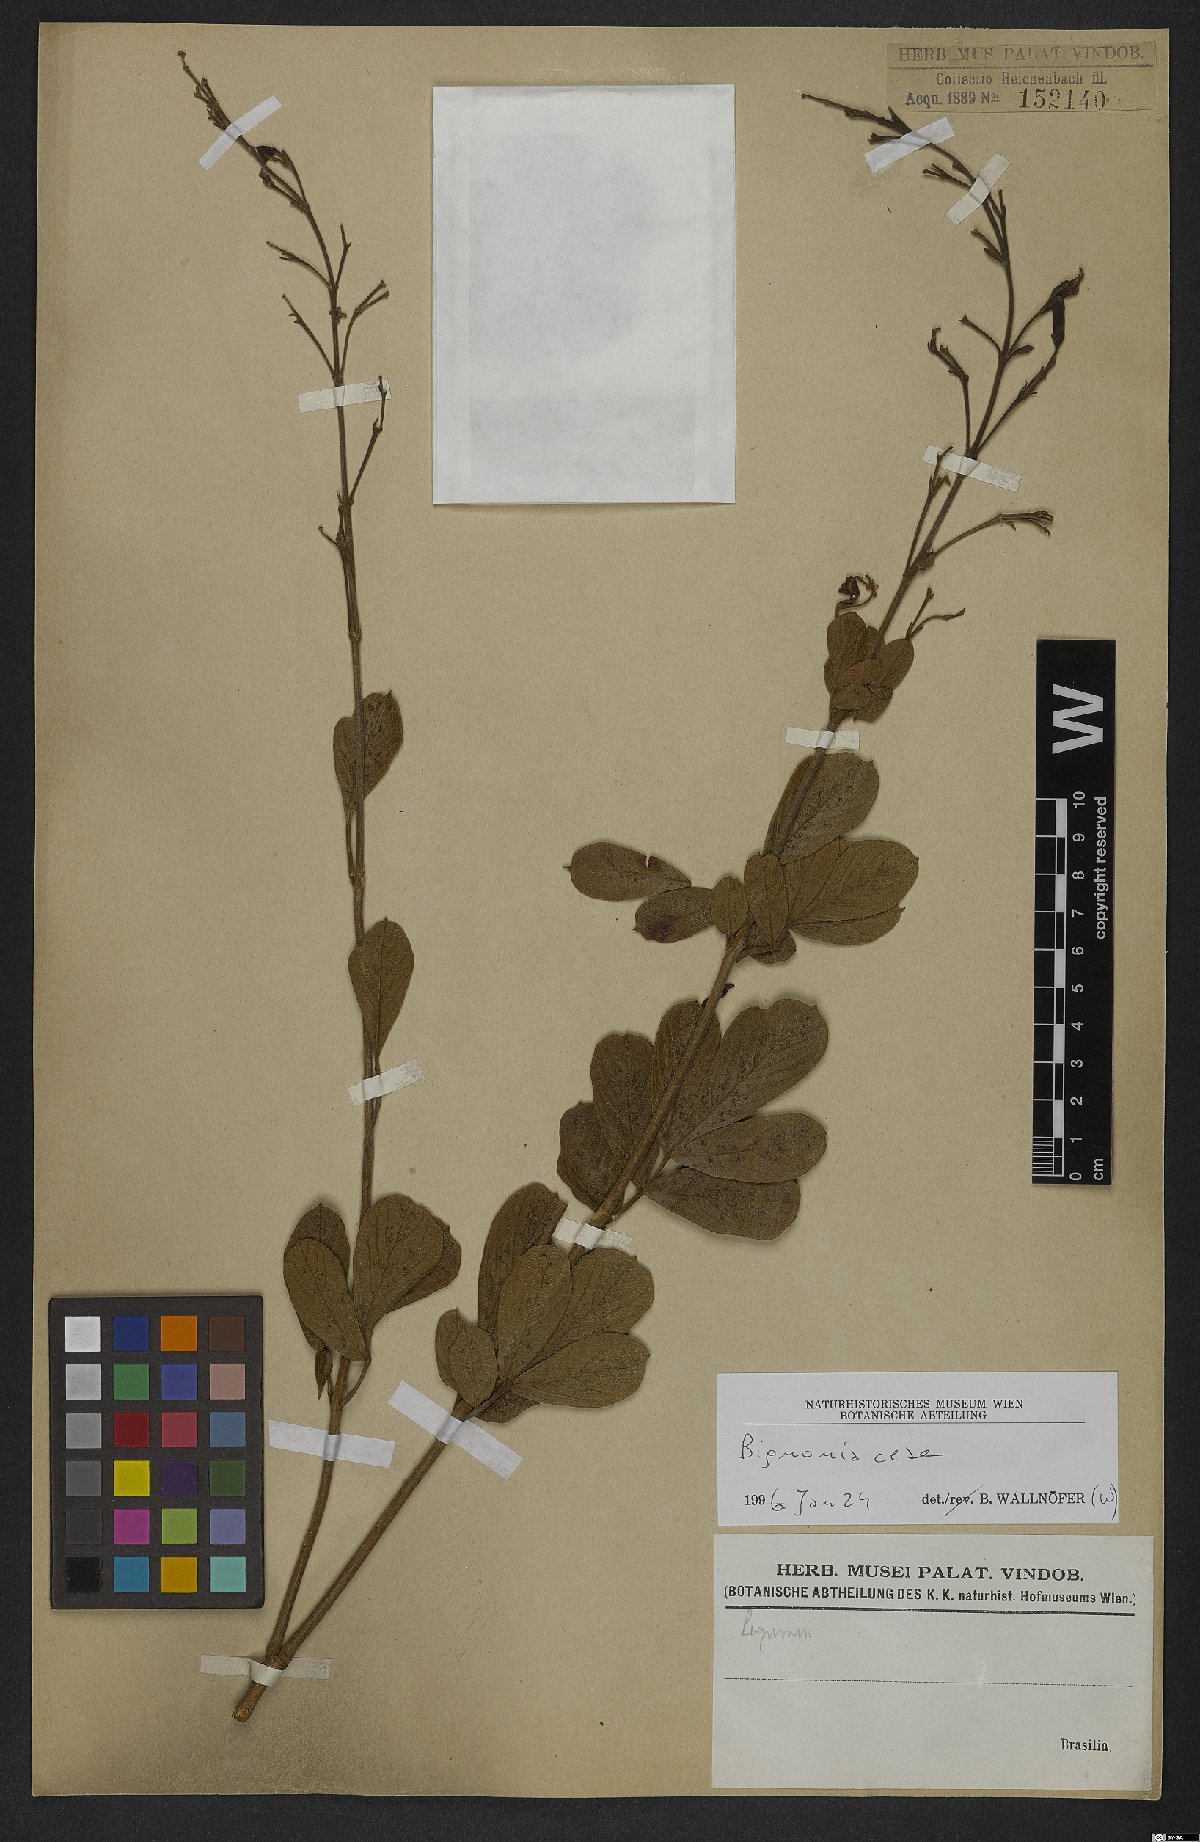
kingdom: Plantae
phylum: Tracheophyta
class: Magnoliopsida
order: Lamiales
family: Bignoniaceae
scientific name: Bignoniaceae
